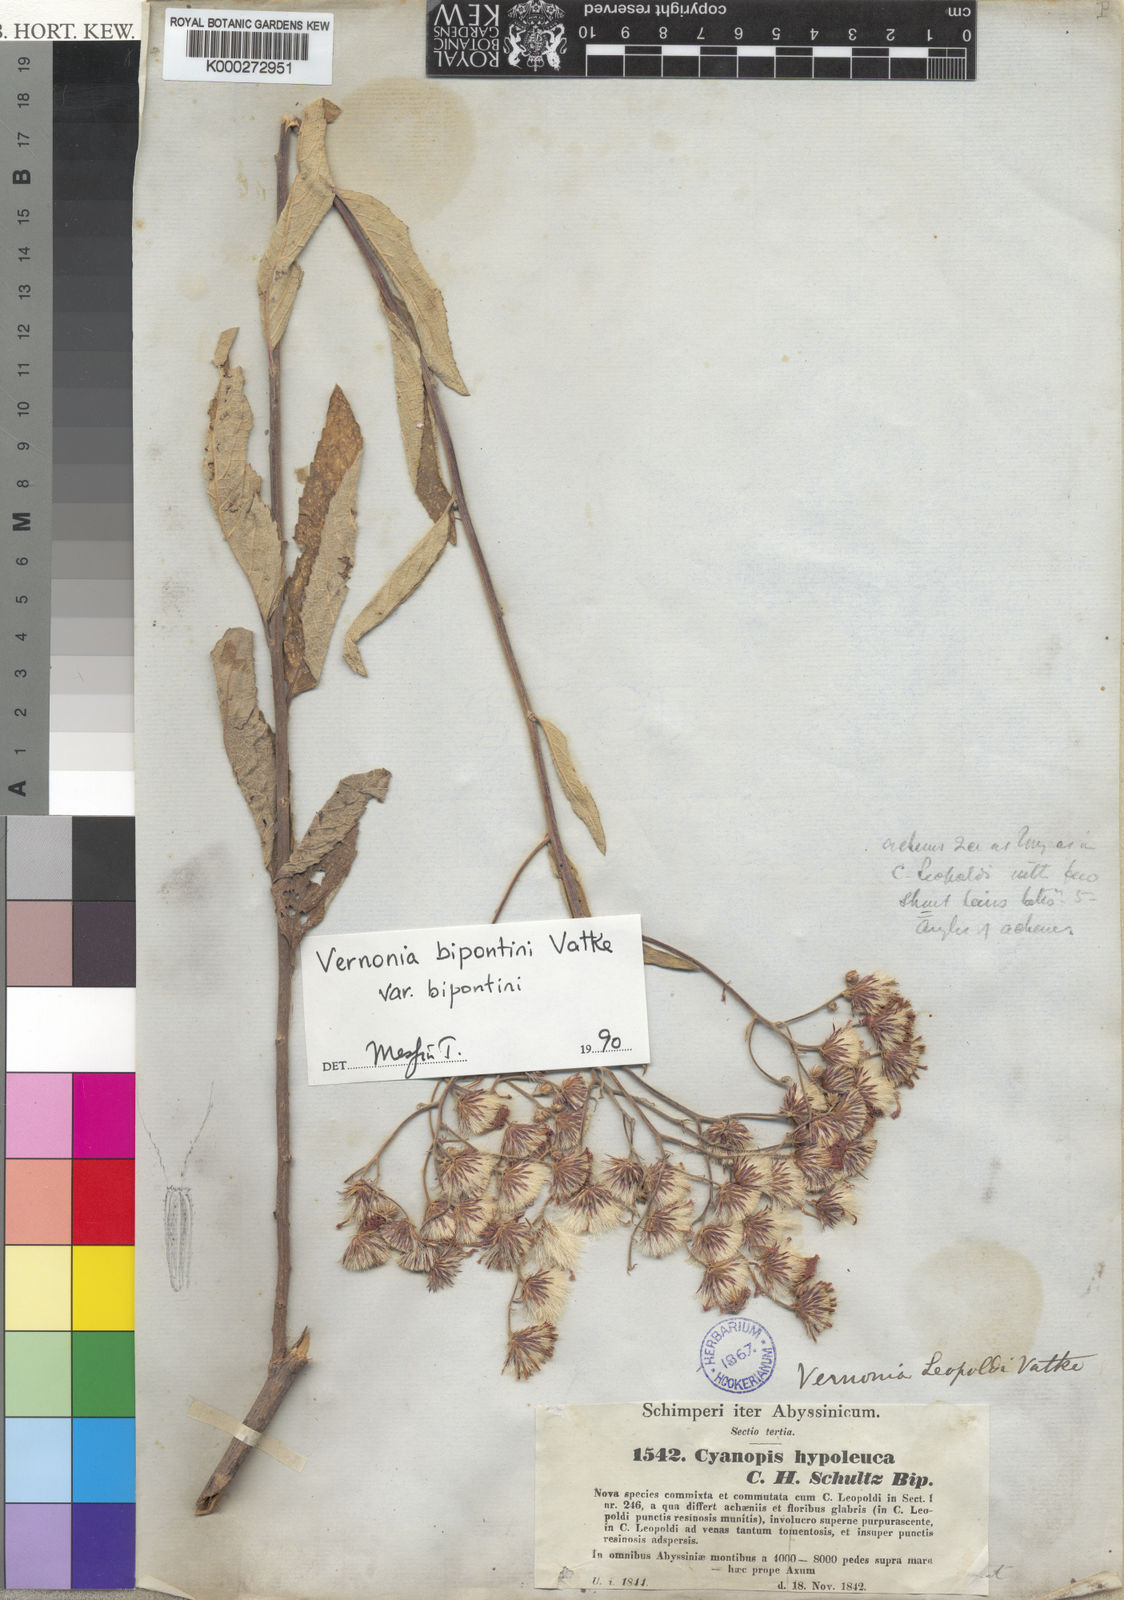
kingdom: Plantae
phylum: Tracheophyta
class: Magnoliopsida
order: Asterales
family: Asteraceae
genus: Vernonia
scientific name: Vernonia bipontini
